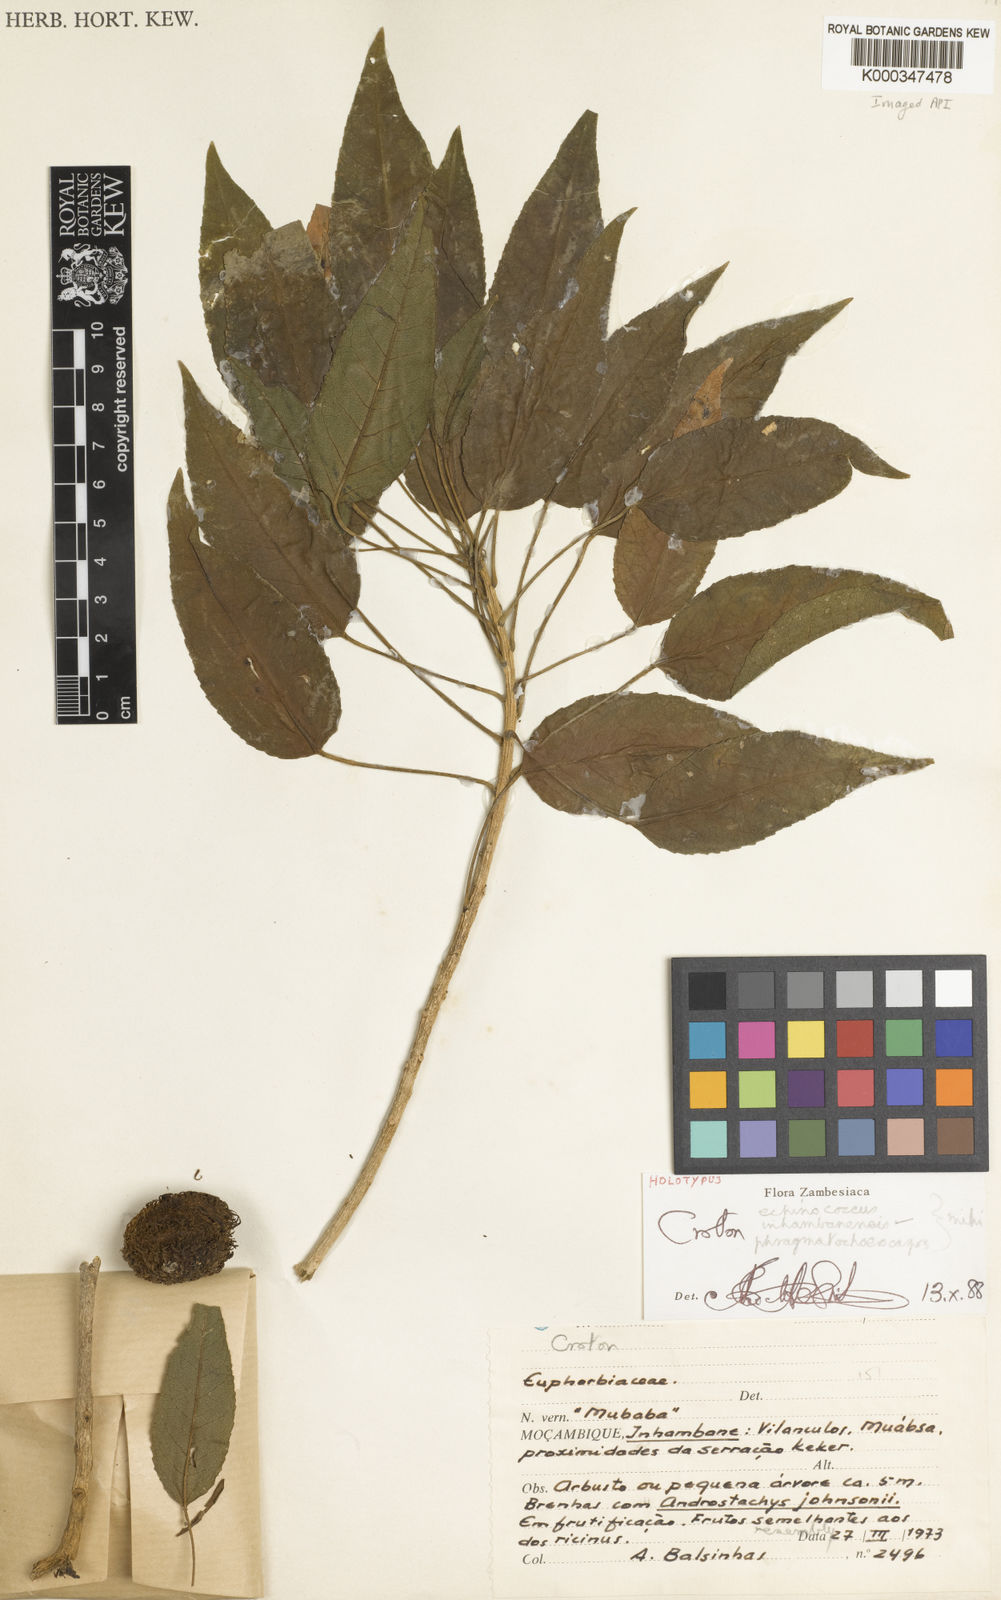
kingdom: Plantae
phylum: Tracheophyta
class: Magnoliopsida
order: Malpighiales
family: Euphorbiaceae
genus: Croton
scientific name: Croton inhambanensis
